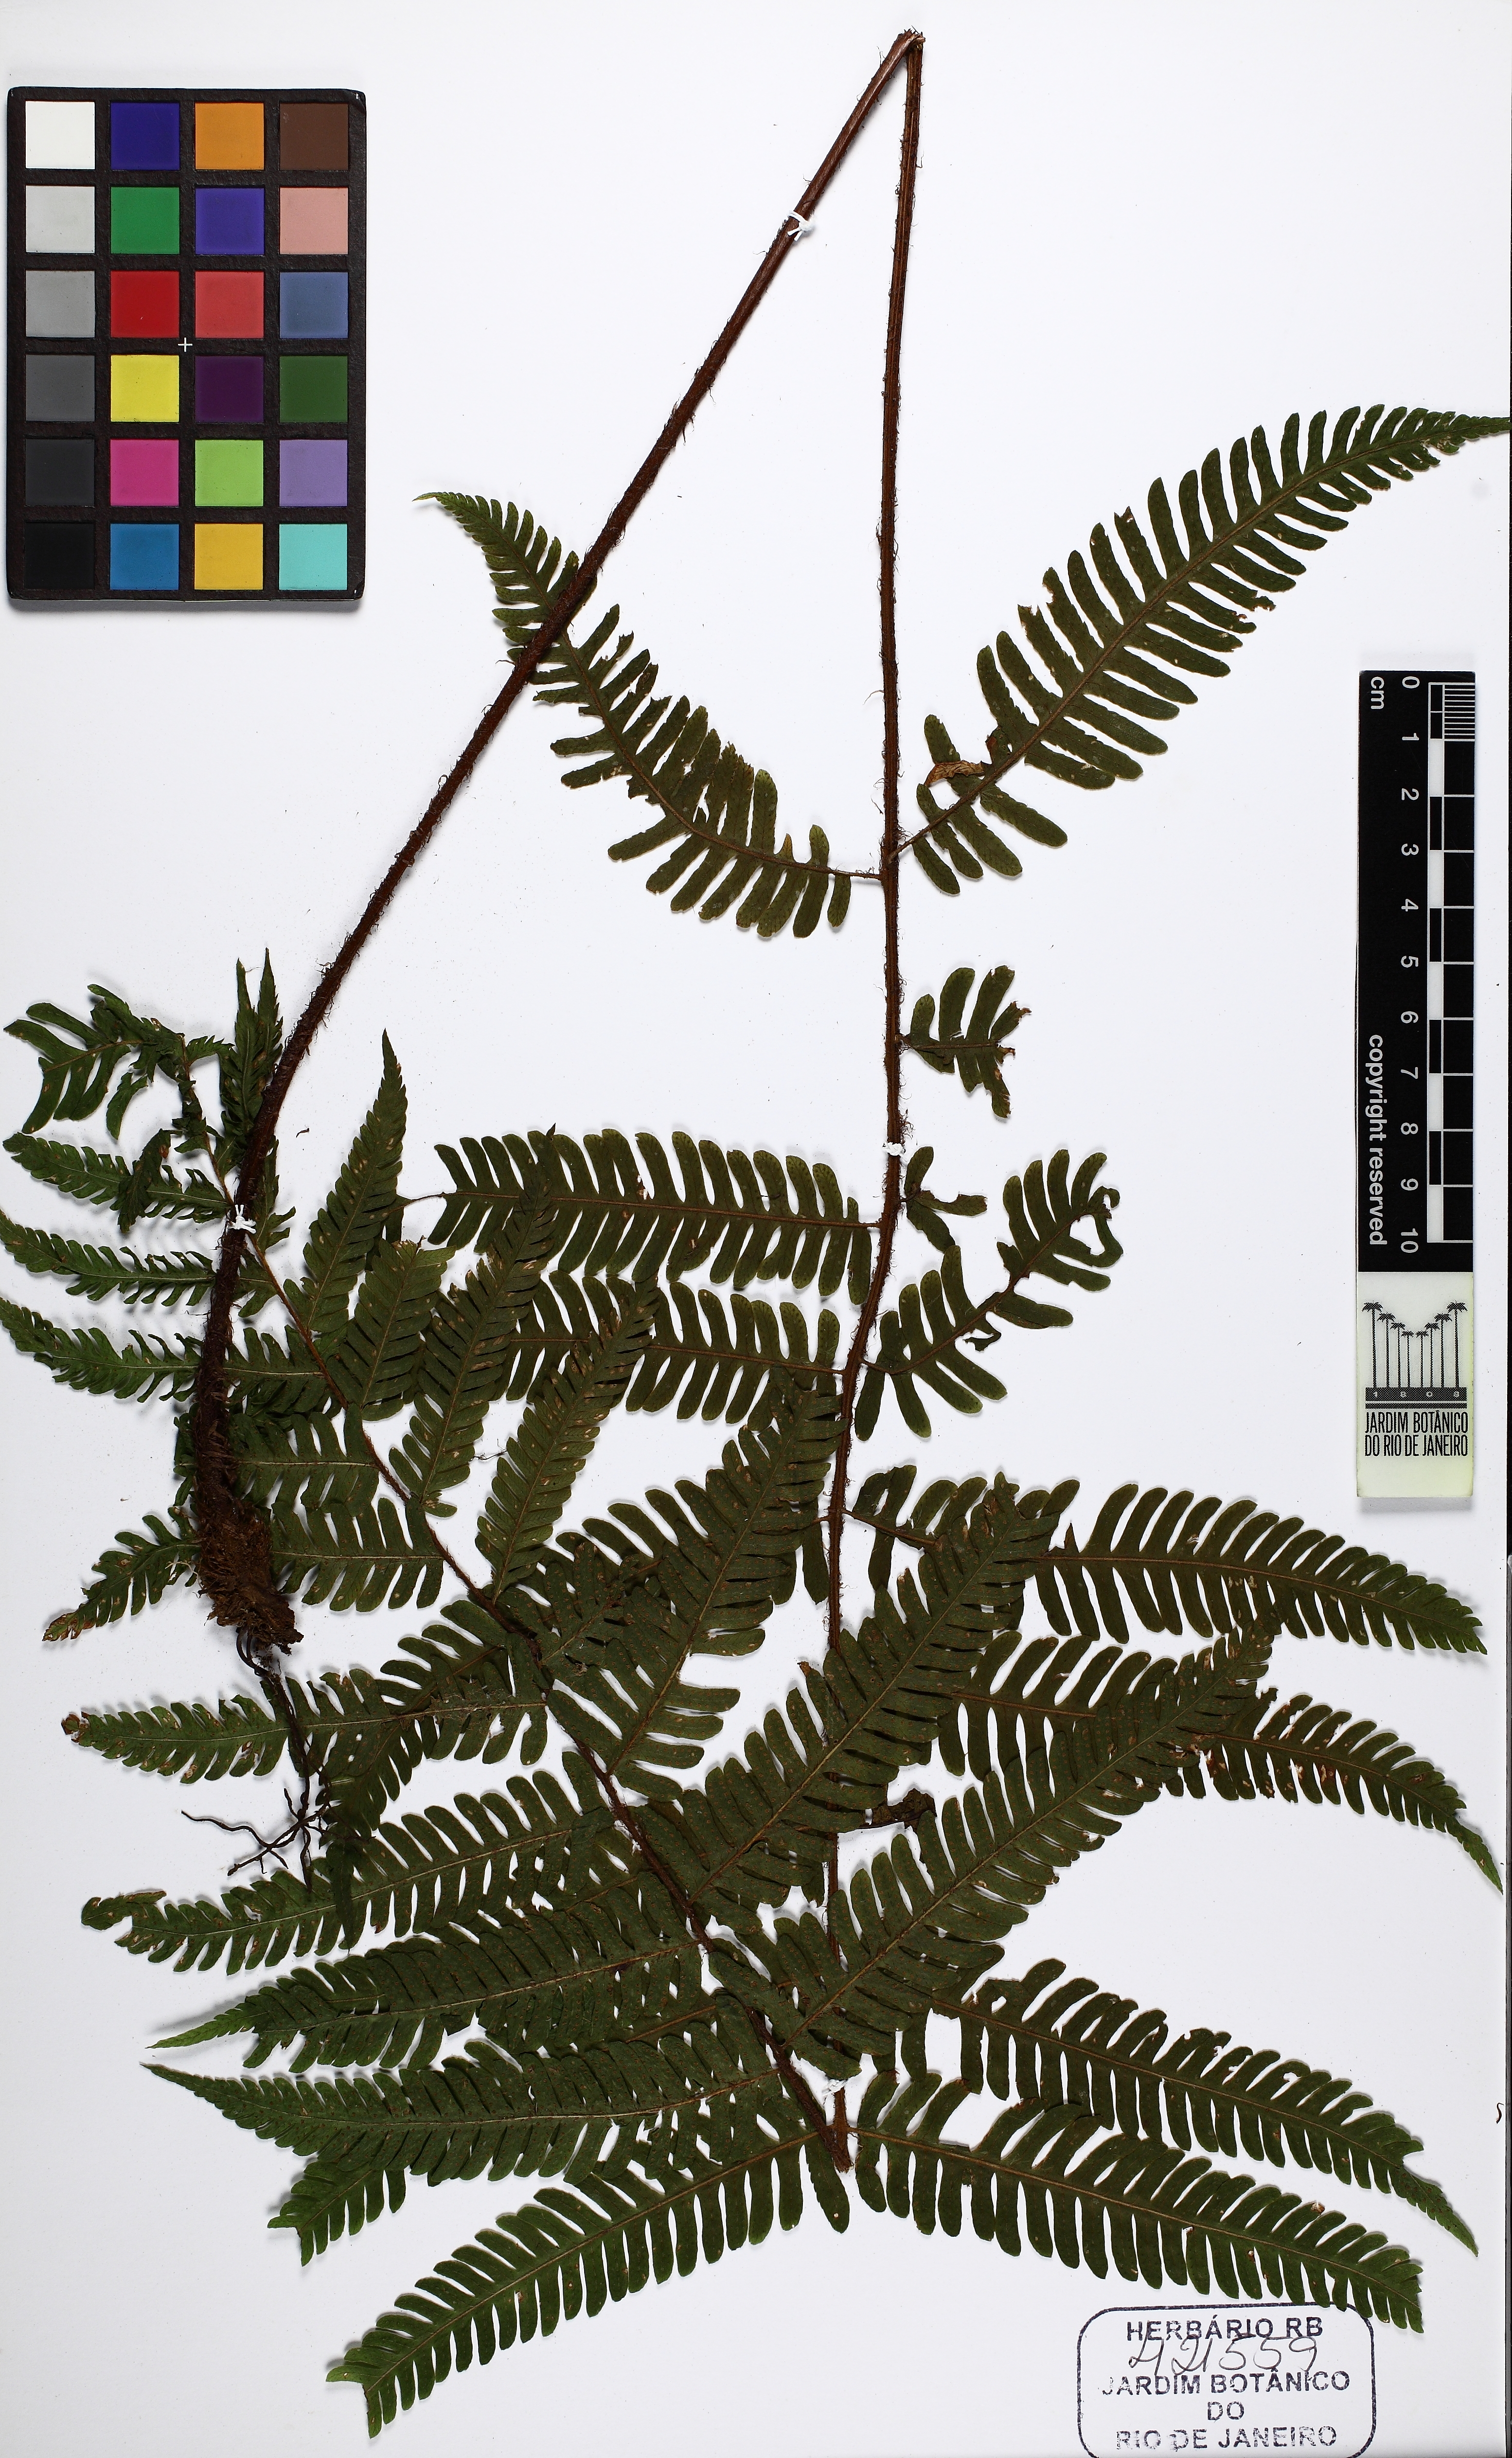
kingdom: Plantae
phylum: Tracheophyta
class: Polypodiopsida
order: Polypodiales
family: Dryopteridaceae
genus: Ctenitis
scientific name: Ctenitis glandulosa
